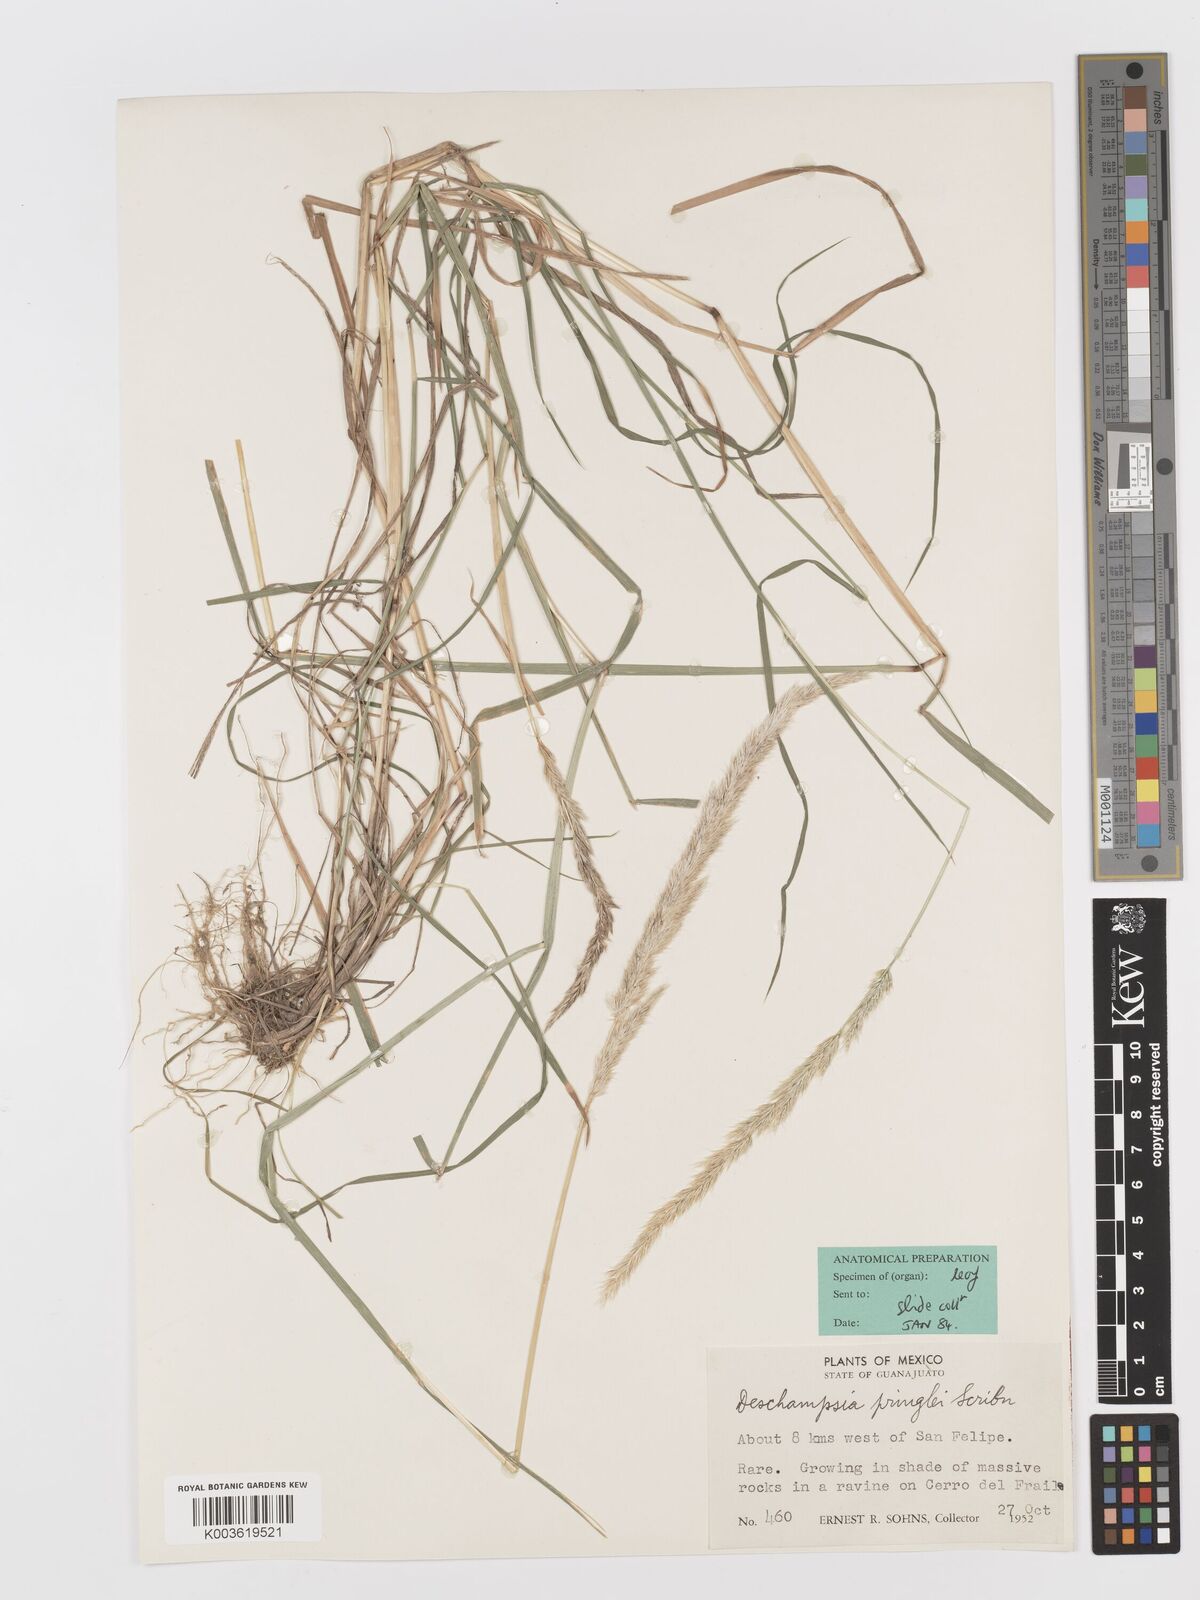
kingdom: Plantae
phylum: Tracheophyta
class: Liliopsida
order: Poales
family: Poaceae
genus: Peyritschia
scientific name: Peyritschia pringlei
